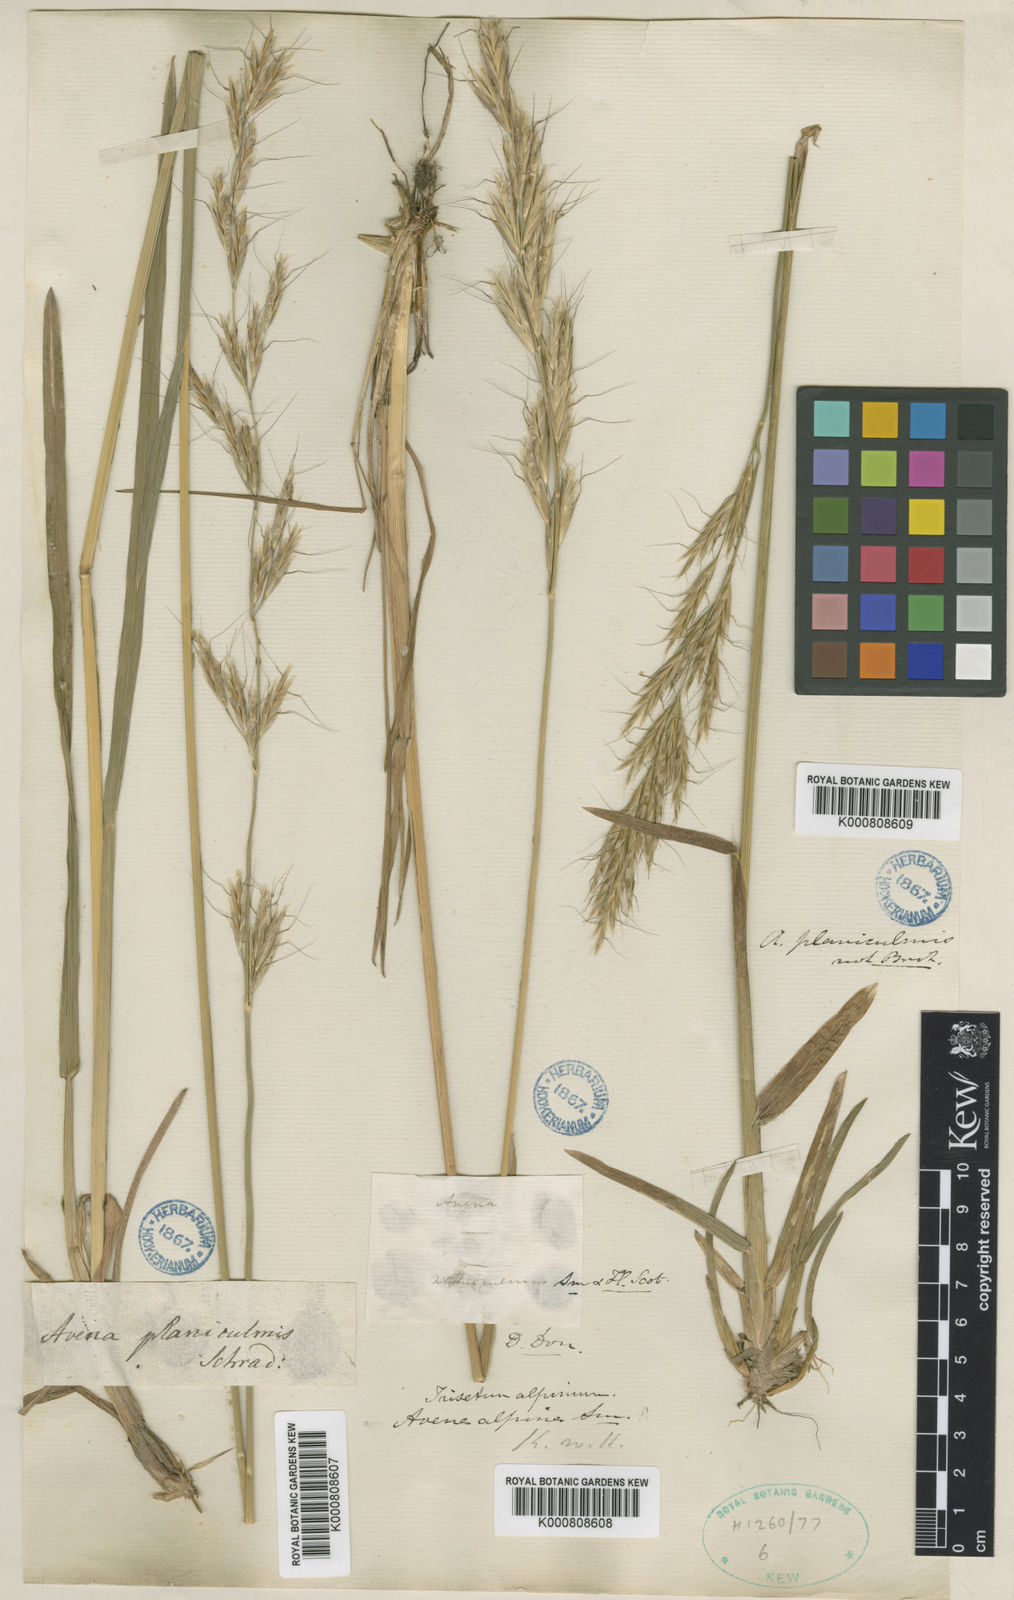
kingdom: Plantae
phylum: Tracheophyta
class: Liliopsida
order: Poales
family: Poaceae
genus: Helictochloa
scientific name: Helictochloa planiculmis
